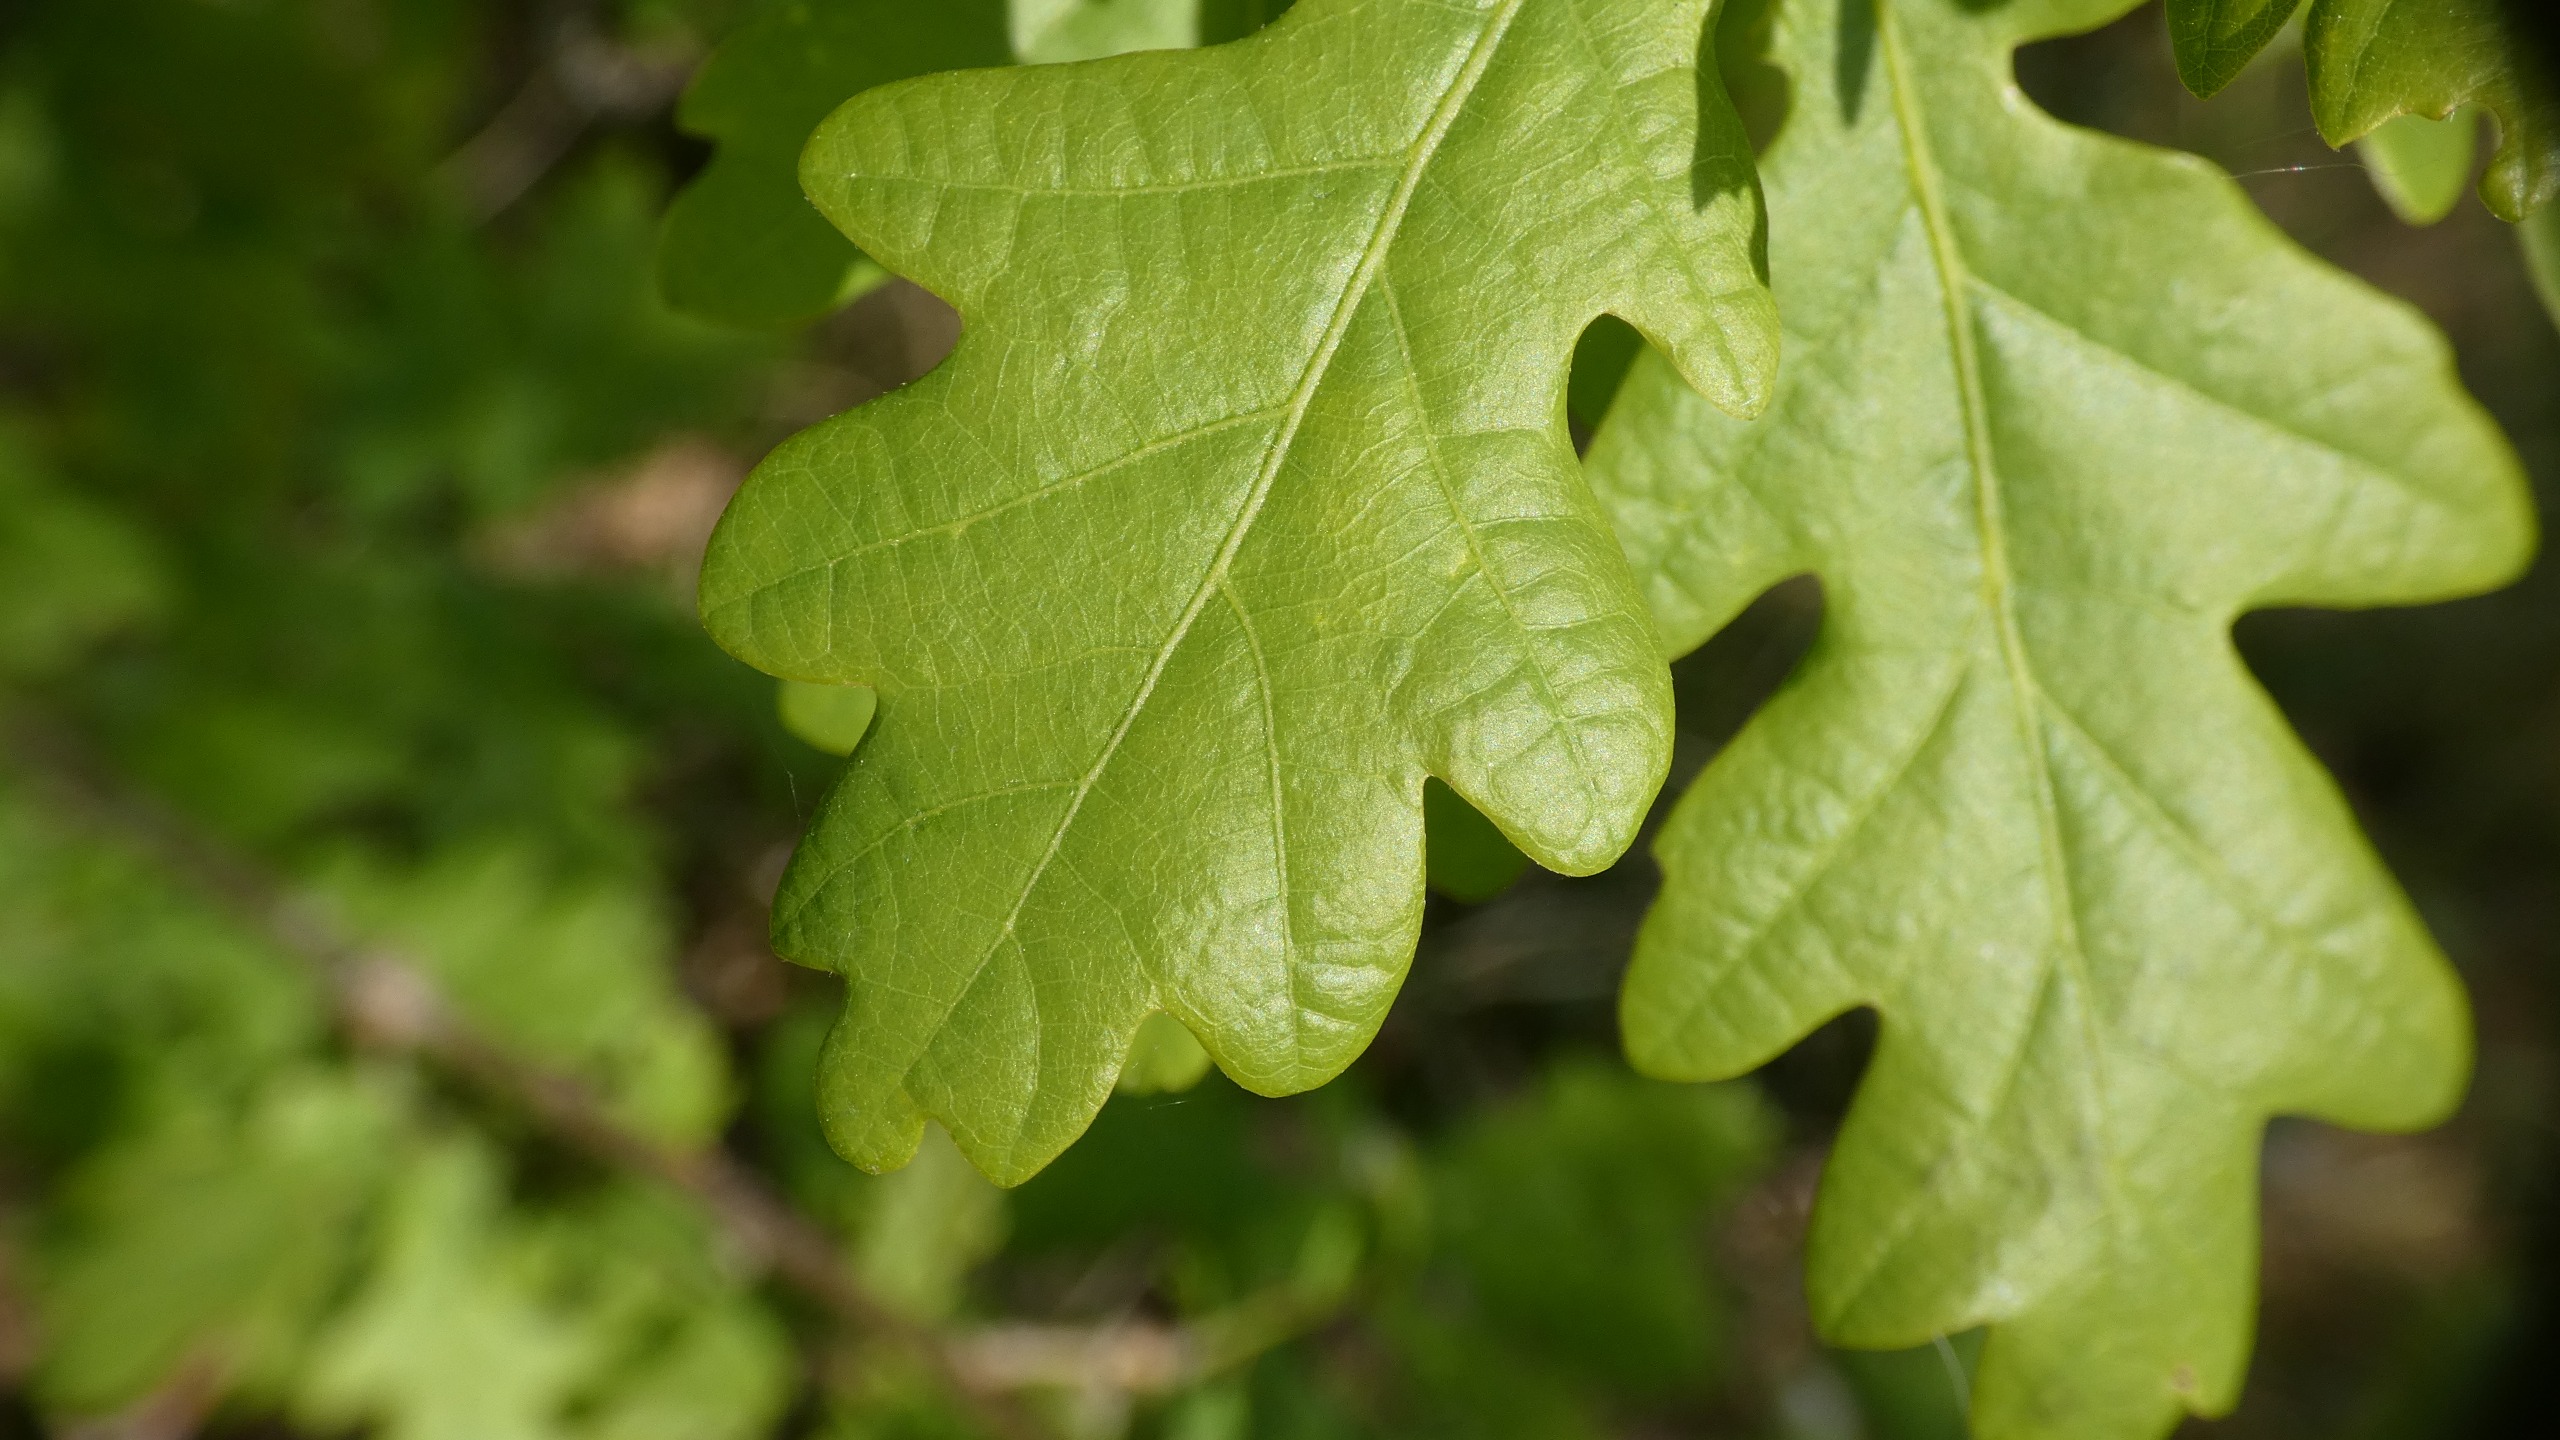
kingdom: Plantae
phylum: Tracheophyta
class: Magnoliopsida
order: Fagales
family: Fagaceae
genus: Quercus
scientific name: Quercus robur
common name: Stilk-eg/almindelig eg
